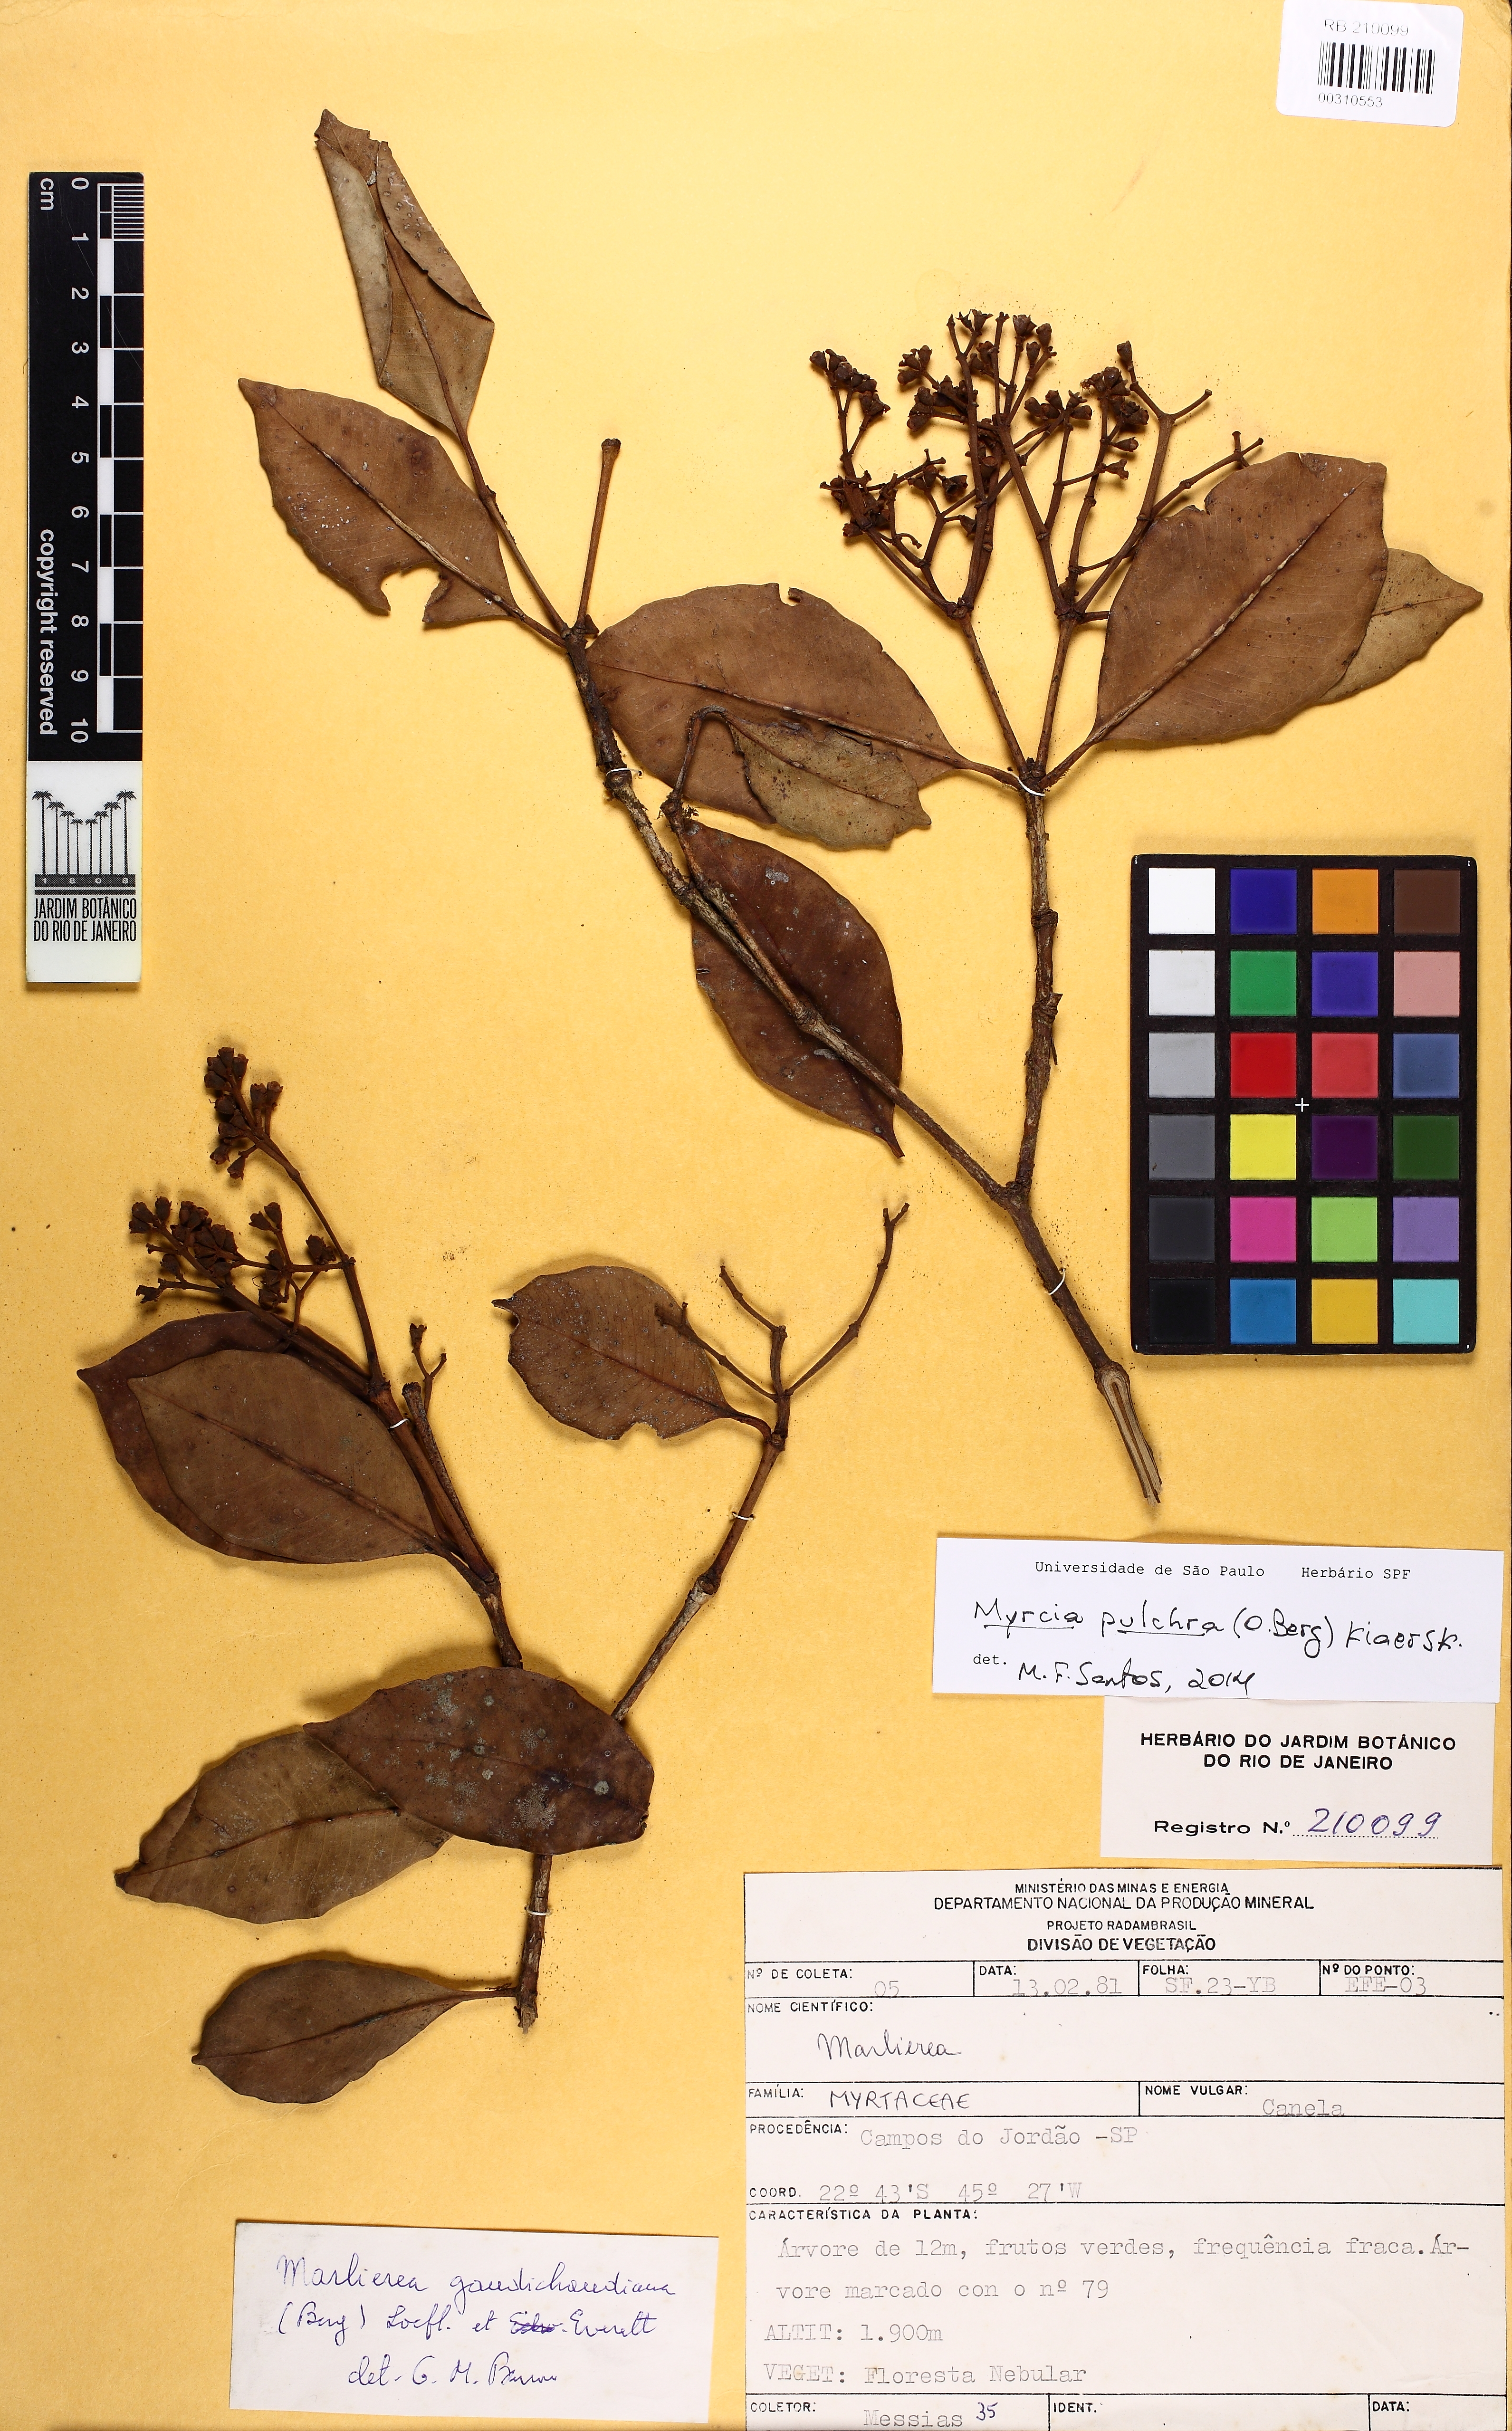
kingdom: Plantae
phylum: Tracheophyta
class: Magnoliopsida
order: Myrtales
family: Myrtaceae
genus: Myrcia
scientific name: Myrcia pulchra
